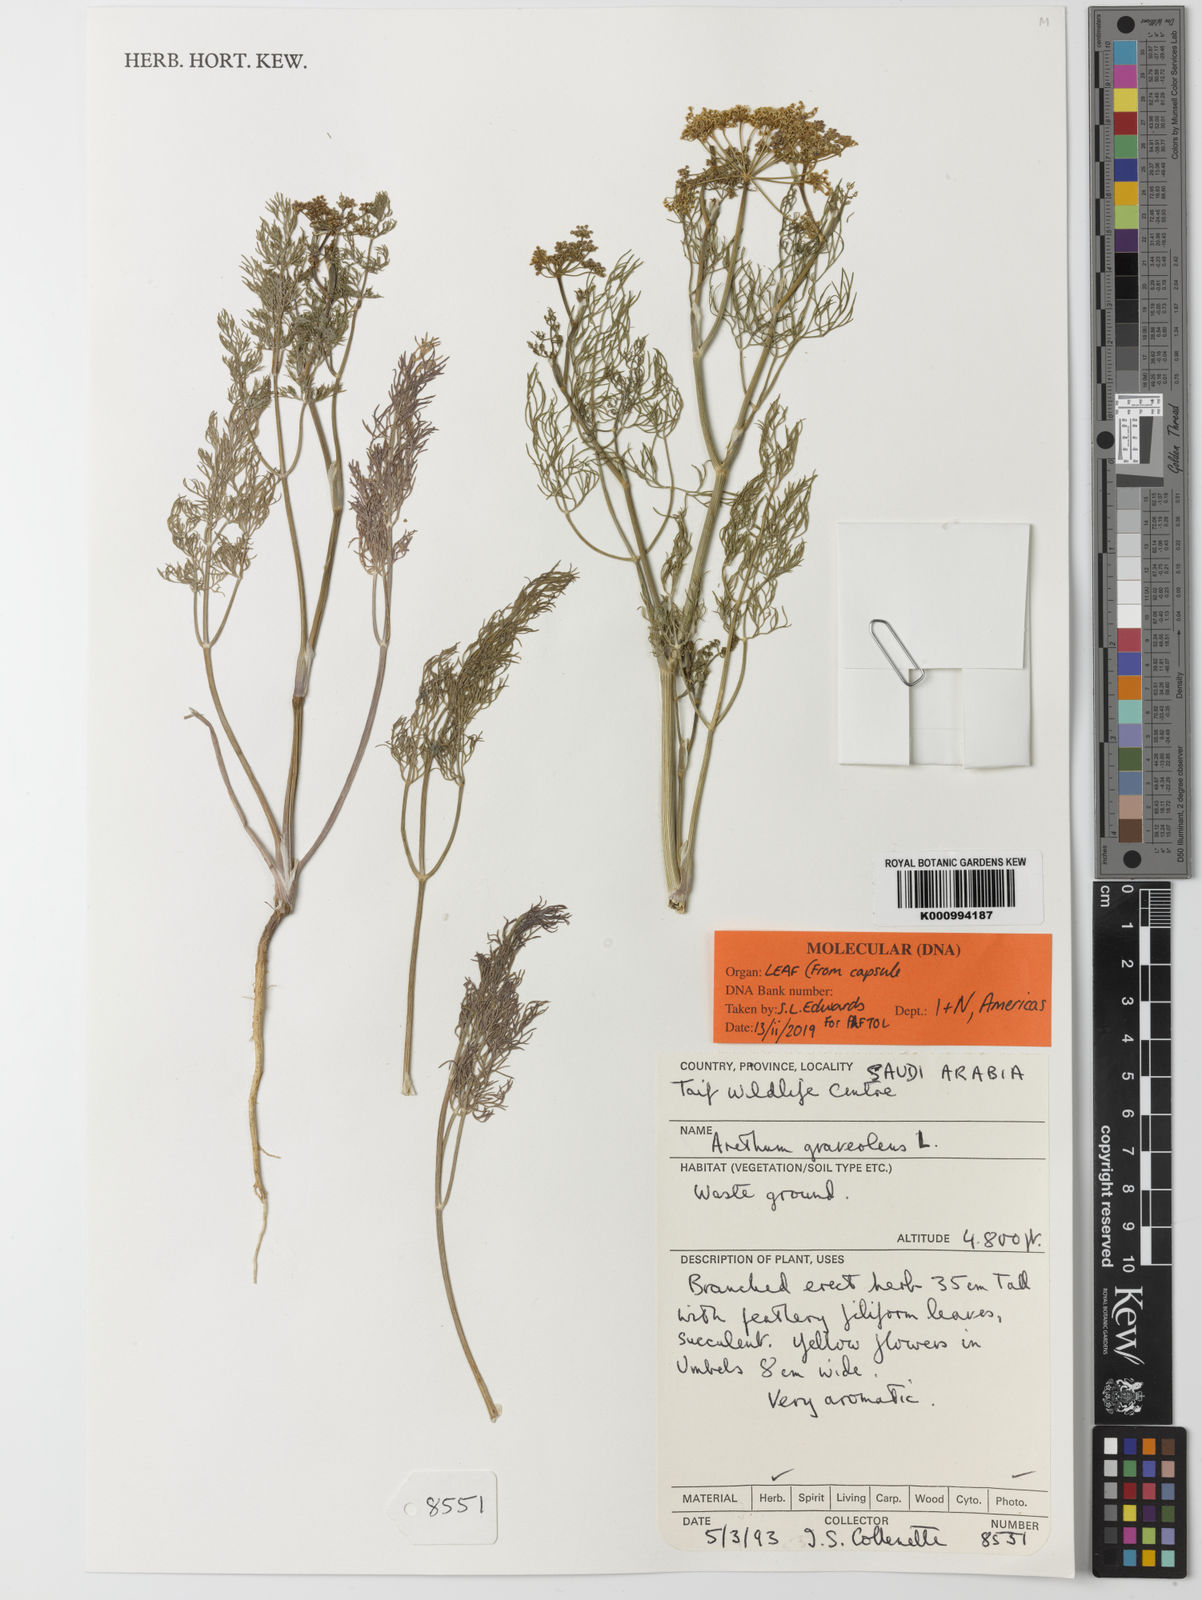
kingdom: Plantae
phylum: Tracheophyta
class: Magnoliopsida
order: Apiales
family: Apiaceae
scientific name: Apiaceae
